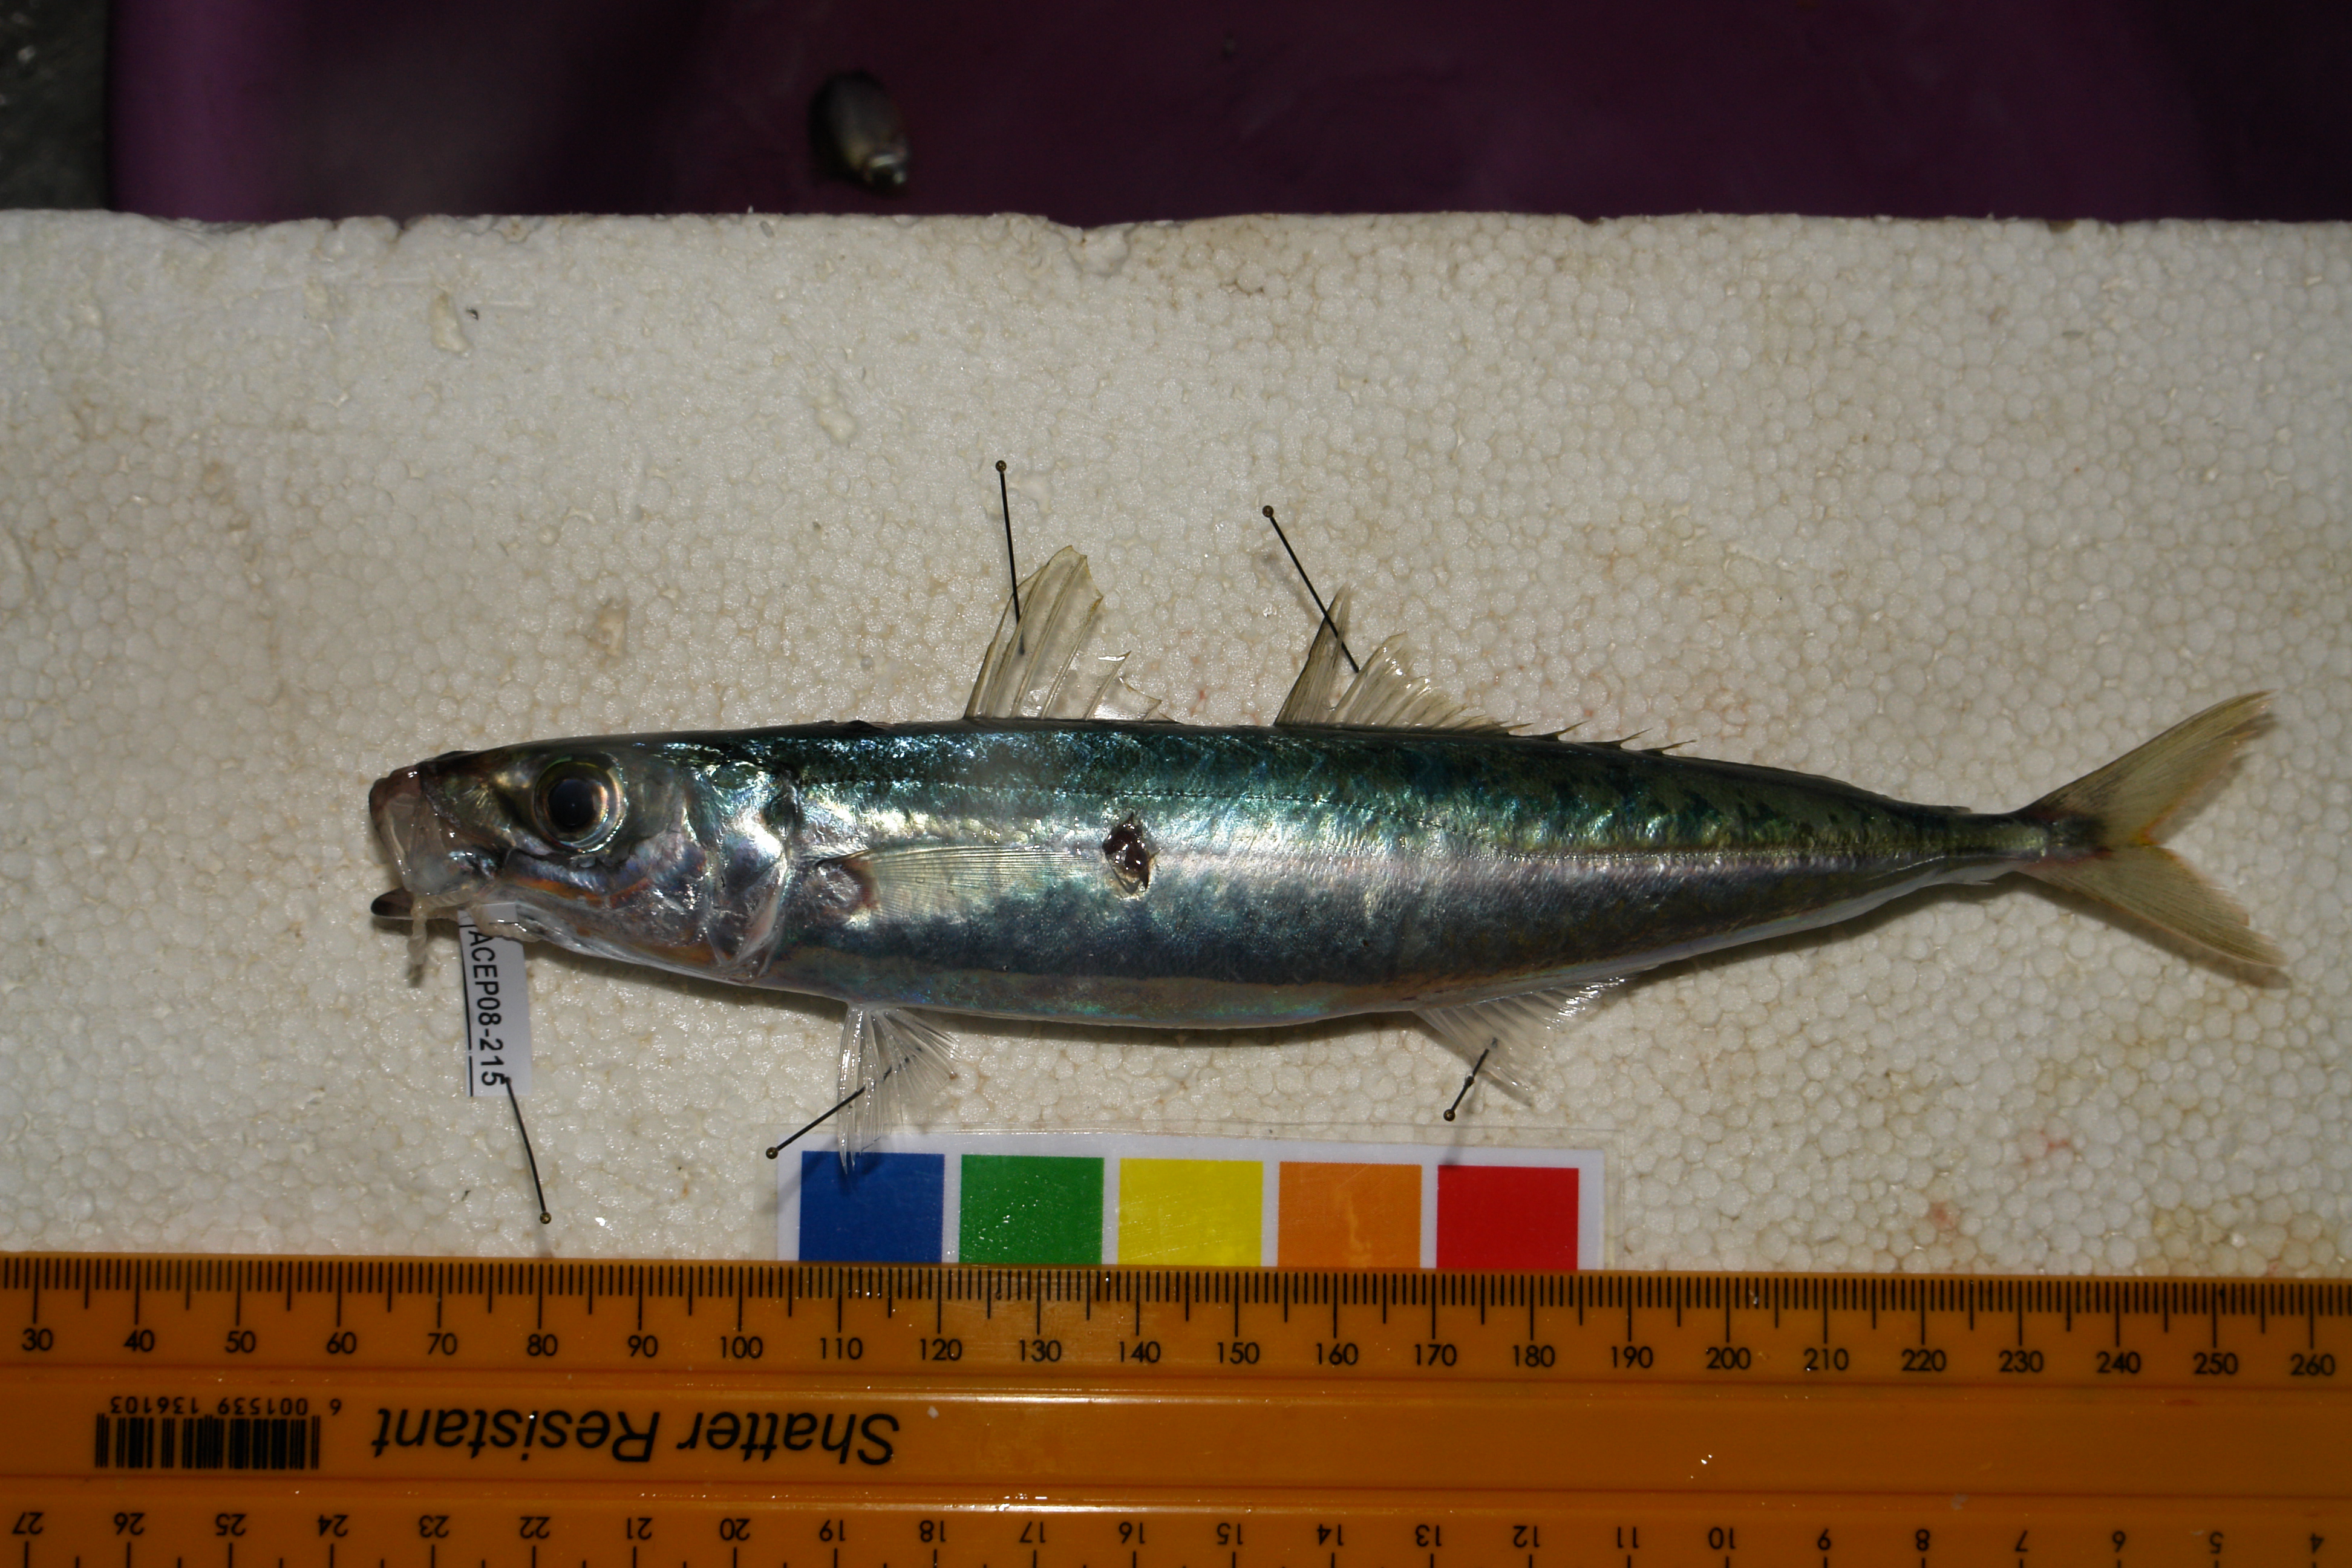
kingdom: Animalia
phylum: Chordata
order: Perciformes
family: Carangidae
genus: Decapterus
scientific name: Decapterus macrosoma
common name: Shortfin scad
